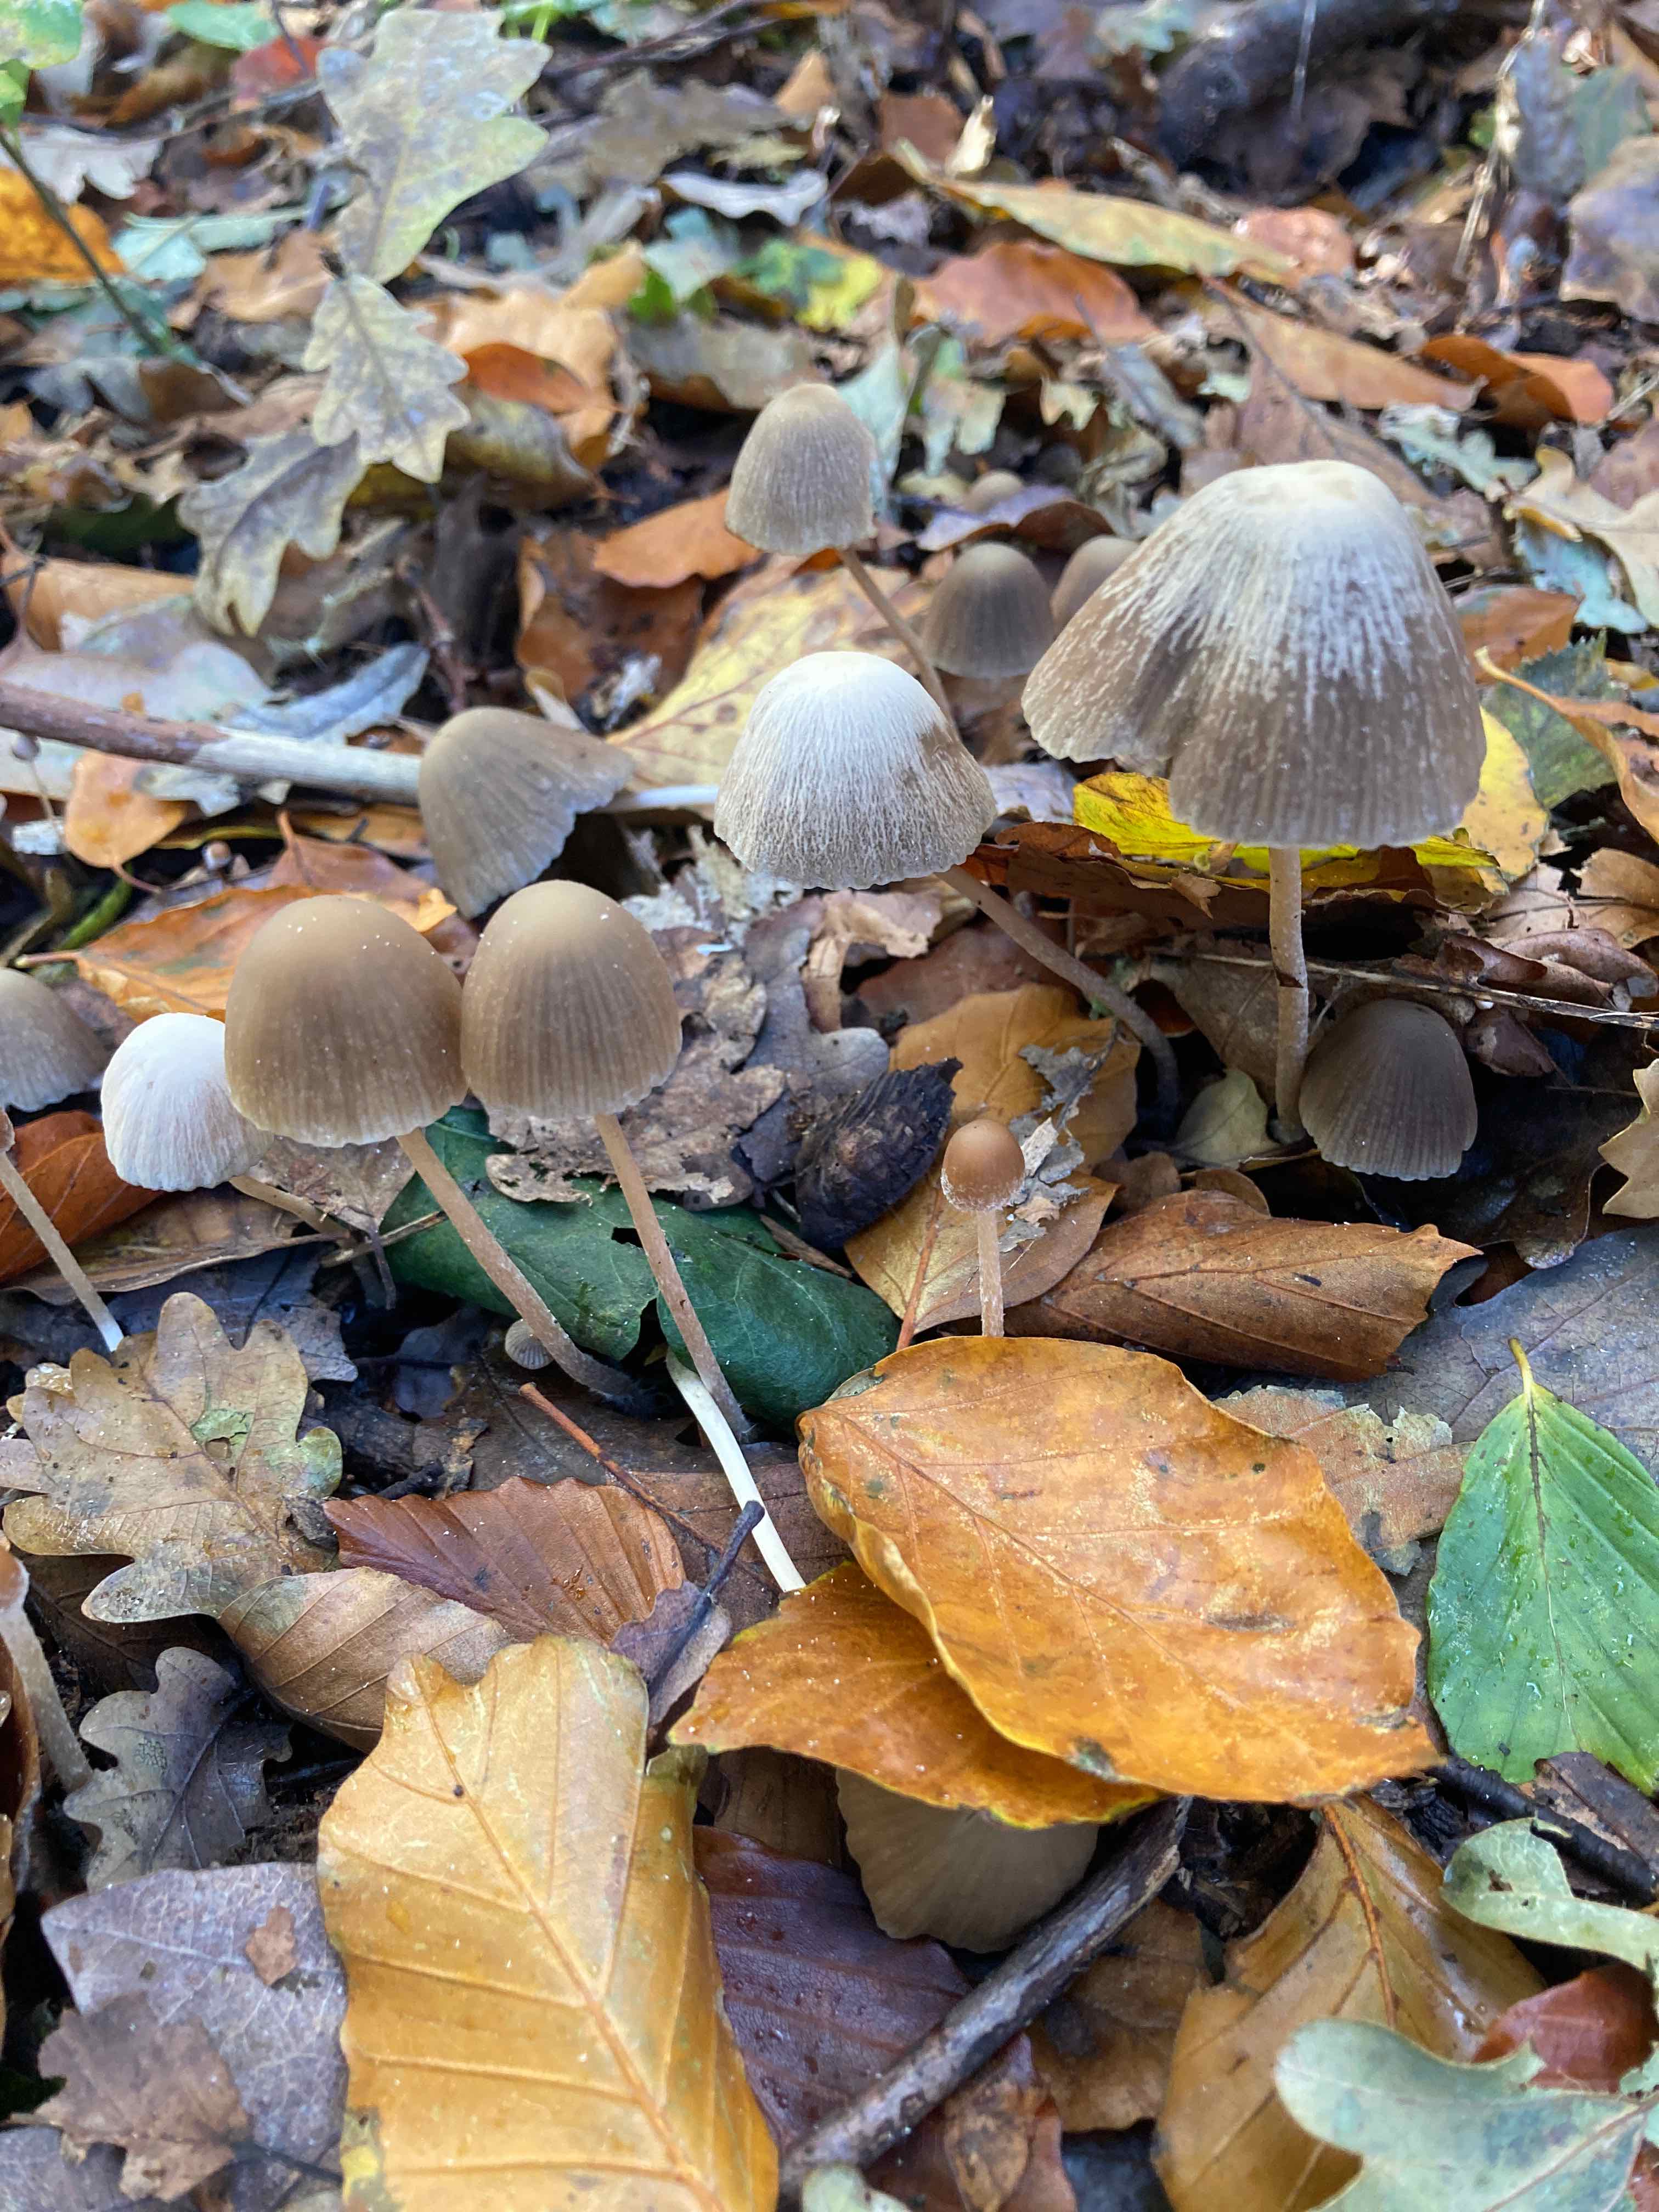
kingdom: Fungi
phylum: Basidiomycota
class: Agaricomycetes
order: Agaricales
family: Psathyrellaceae
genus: Psathyrella
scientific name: Psathyrella pseudogracilis
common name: slank mørkhat
